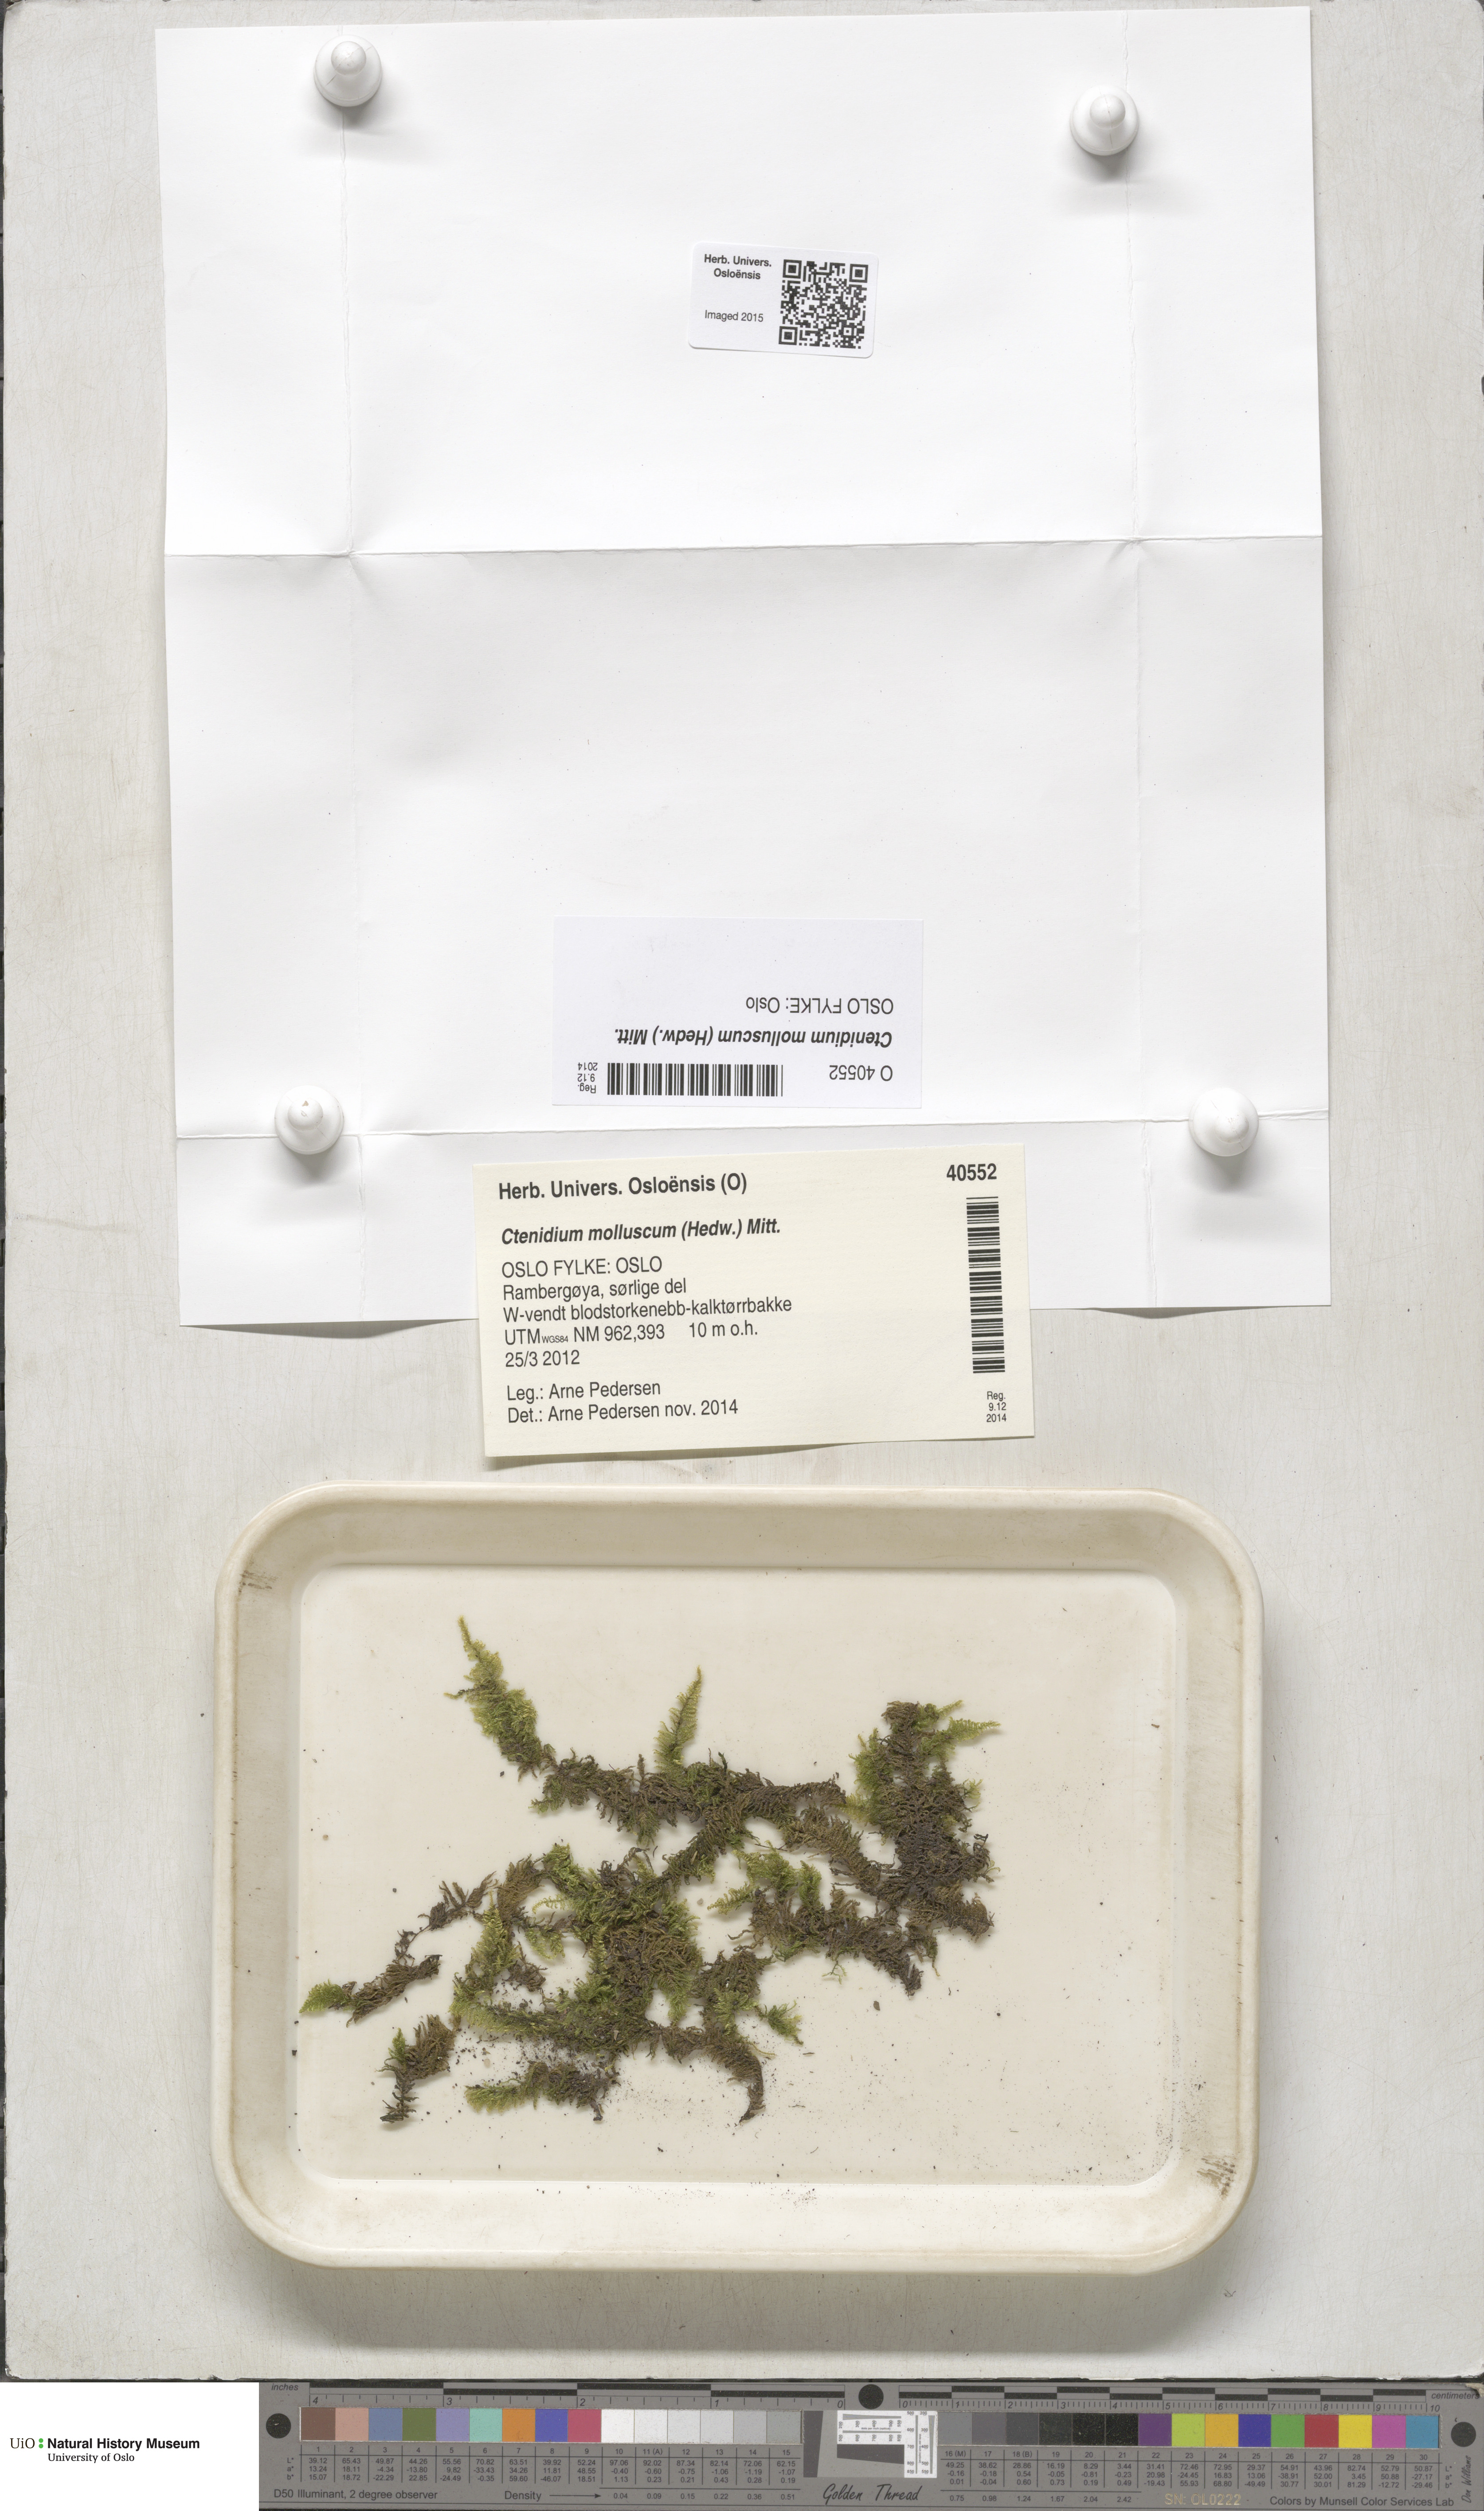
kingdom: Plantae
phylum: Bryophyta
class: Bryopsida
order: Hypnales
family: Myuriaceae
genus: Ctenidium
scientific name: Ctenidium molluscum
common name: Chalk comb-moss
